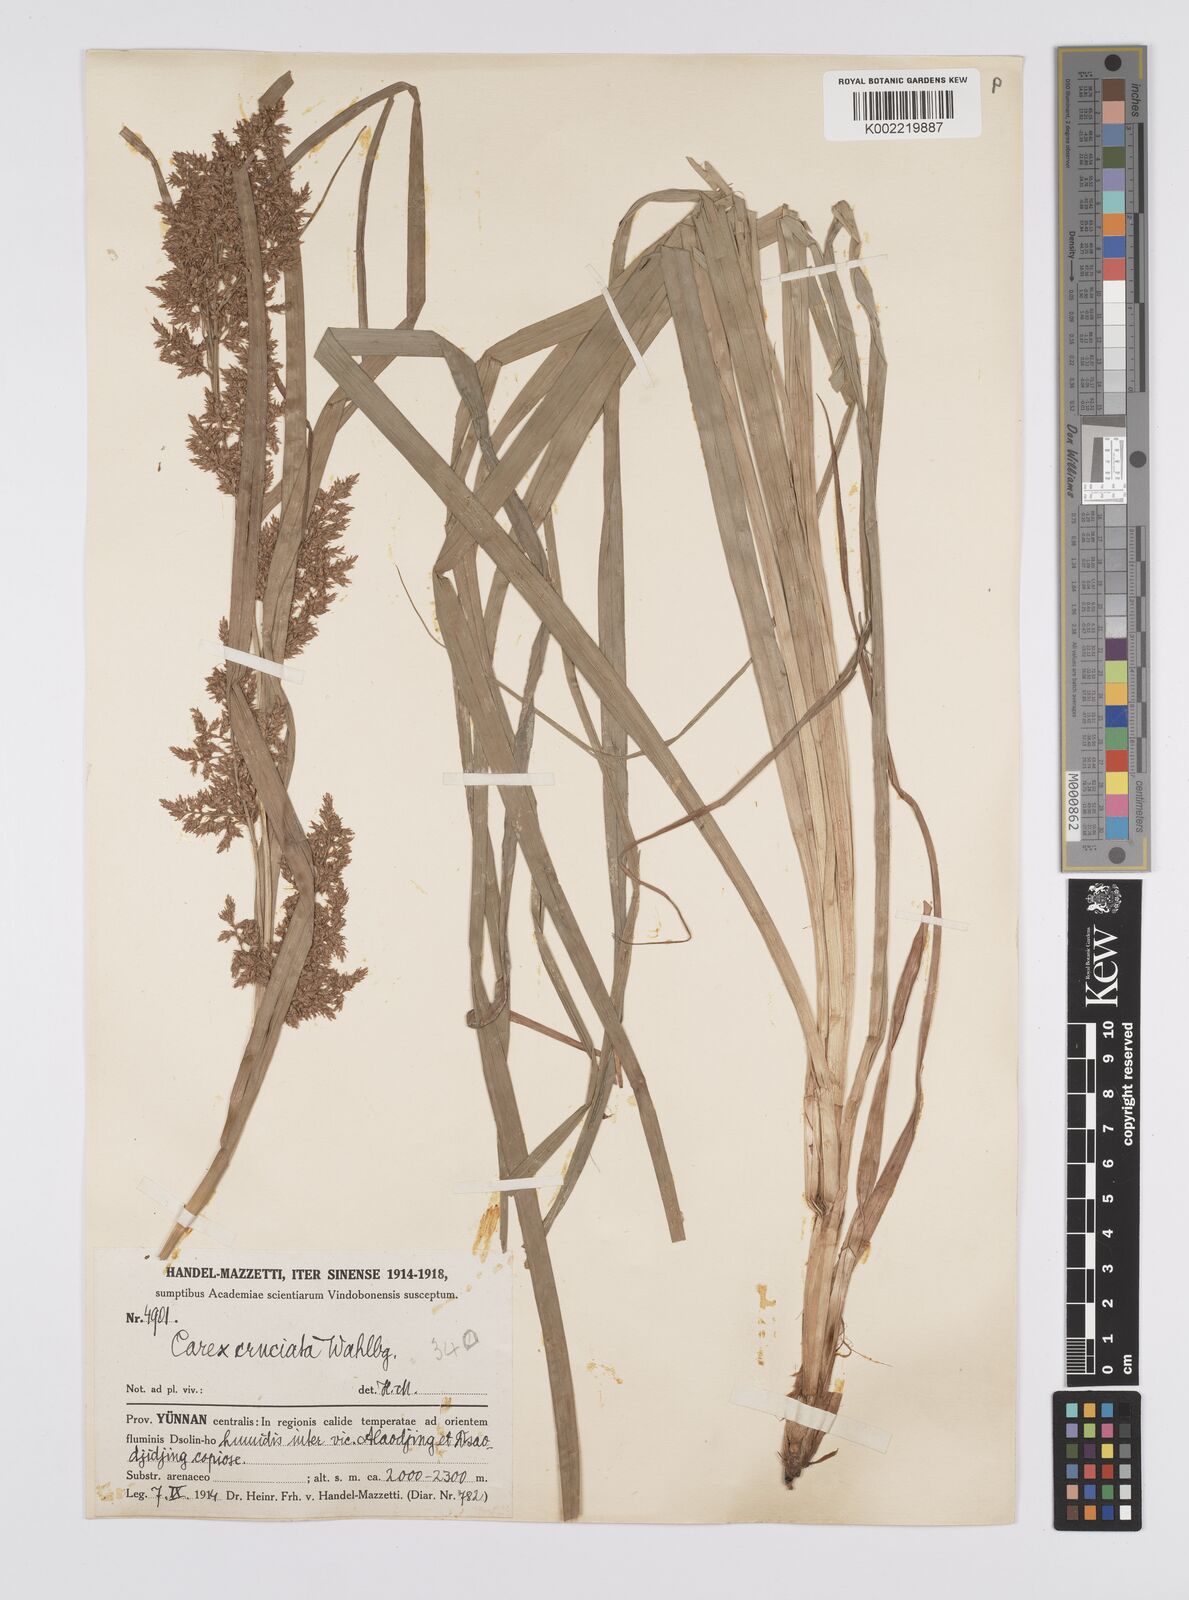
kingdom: Plantae
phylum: Tracheophyta
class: Liliopsida
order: Poales
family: Cyperaceae
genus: Carex
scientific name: Carex cruciata
